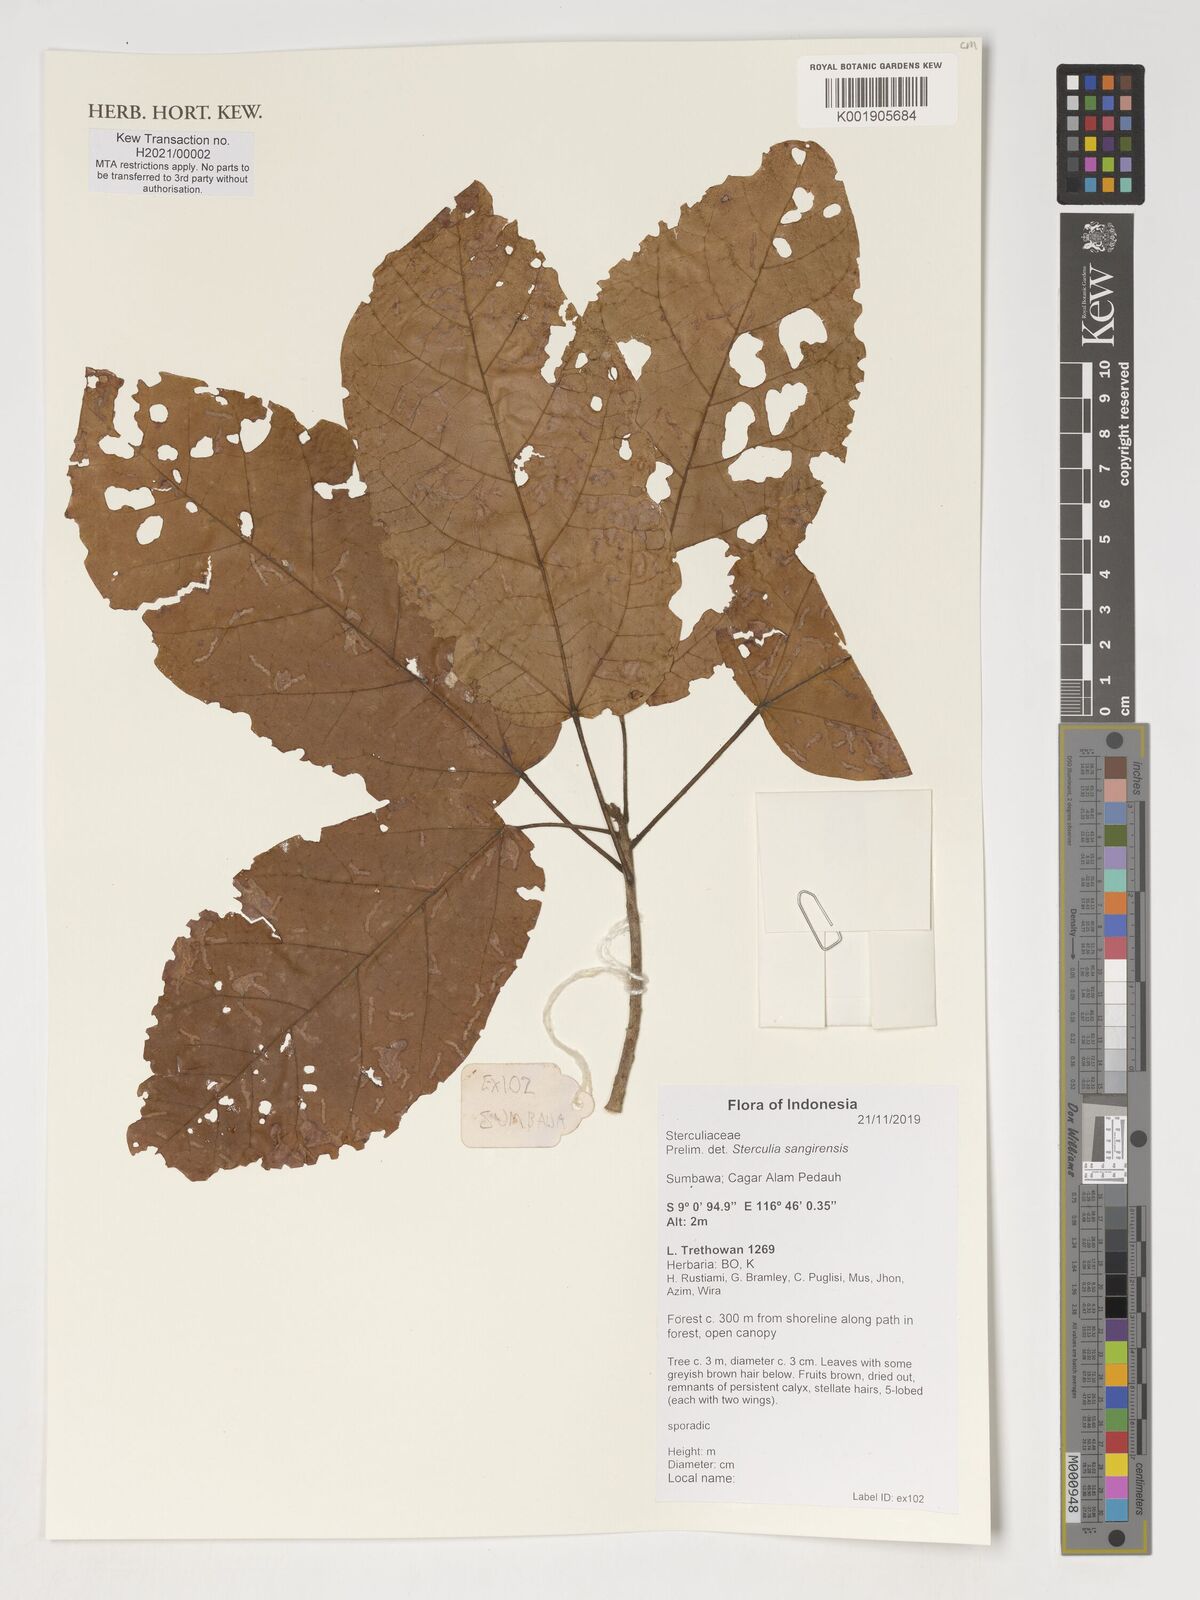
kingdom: Plantae
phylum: Tracheophyta
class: Magnoliopsida
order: Malvales
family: Malvaceae
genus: Sterculia
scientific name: Sterculia sangirensis
